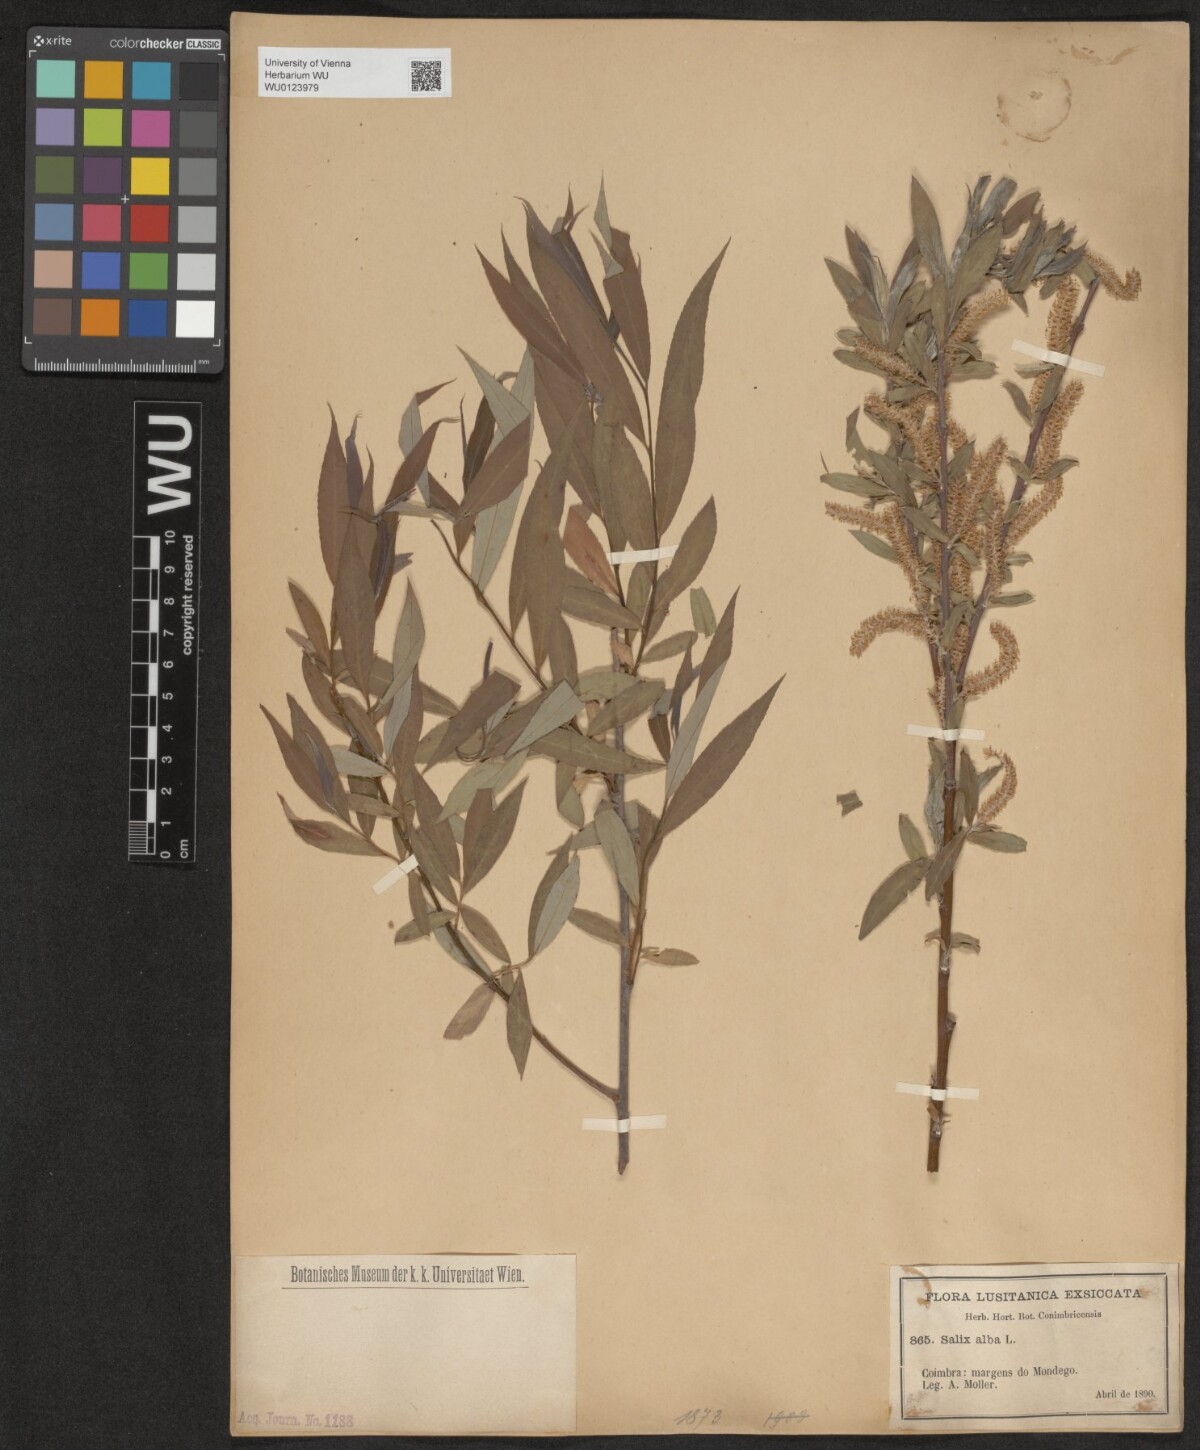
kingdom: Plantae
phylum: Tracheophyta
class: Magnoliopsida
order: Malpighiales
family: Salicaceae
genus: Salix
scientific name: Salix alba
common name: White willow
